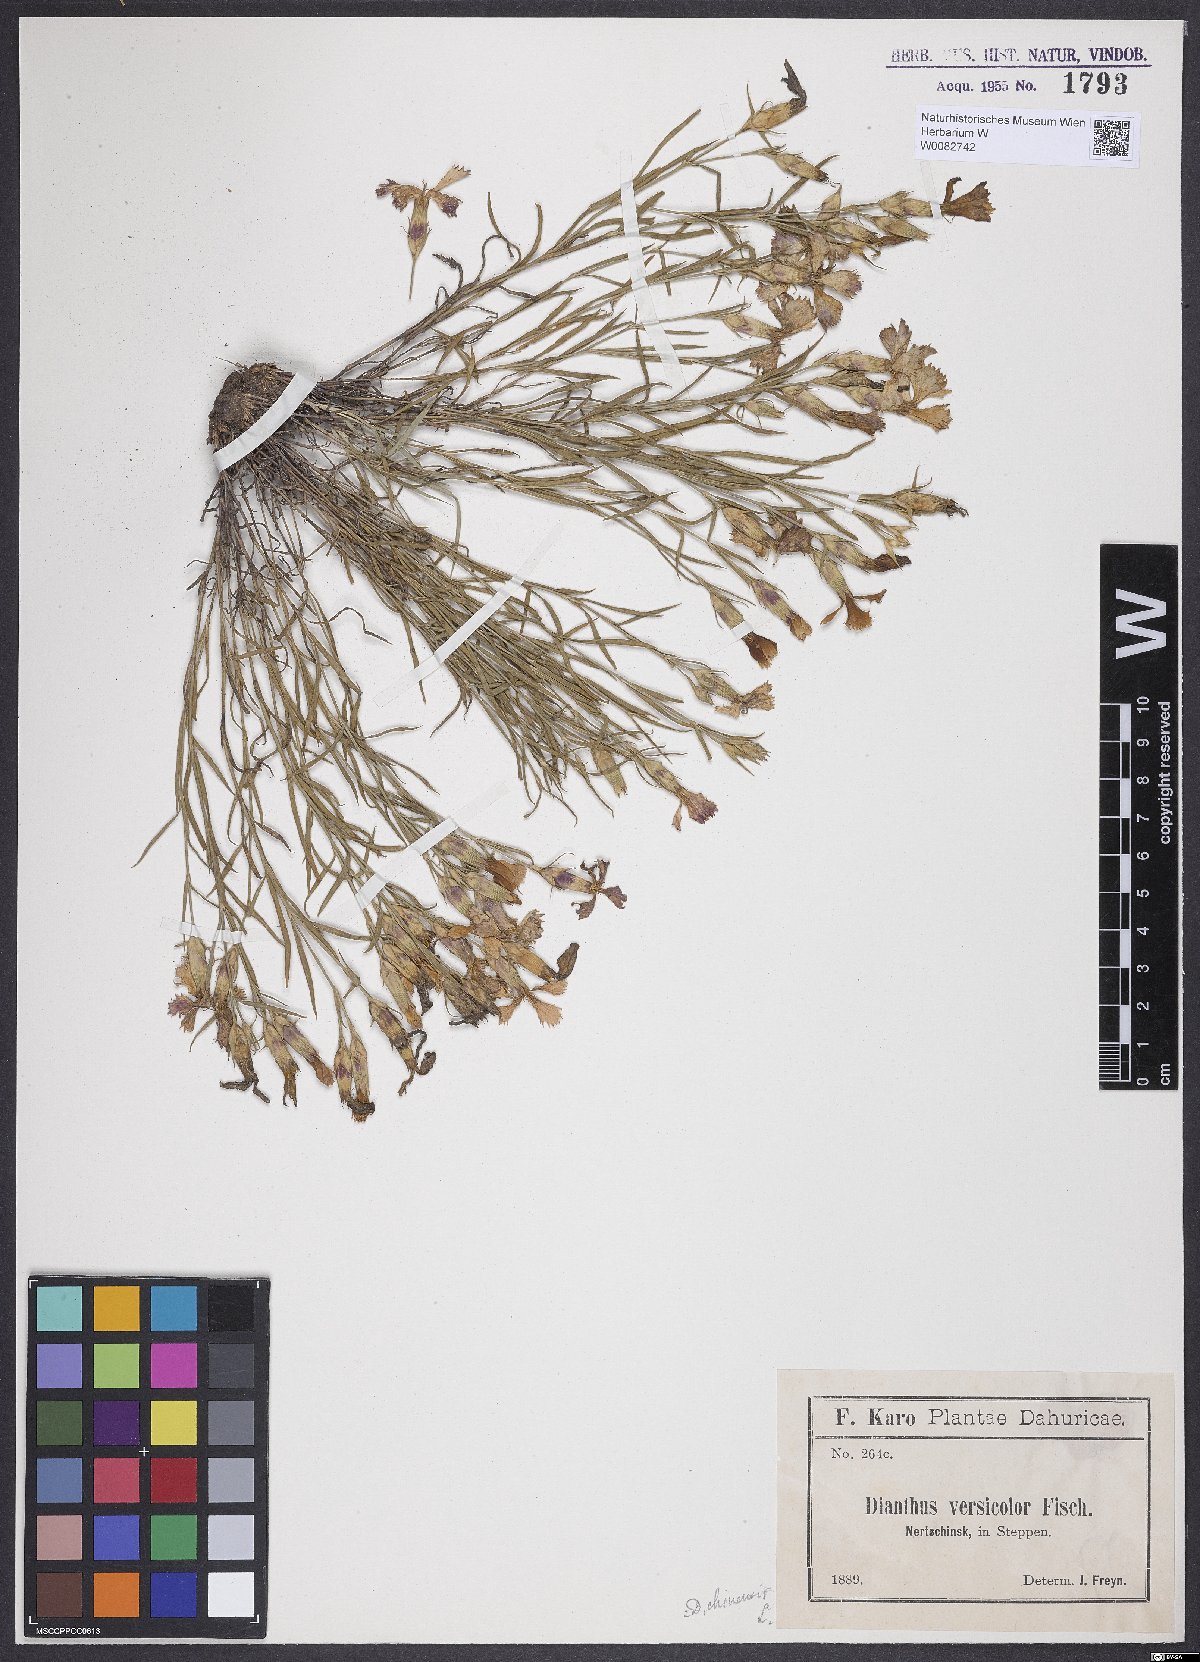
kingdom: Plantae
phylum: Tracheophyta
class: Magnoliopsida
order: Caryophyllales
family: Caryophyllaceae
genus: Dianthus
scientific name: Dianthus chinensis
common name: Rainbow pink
